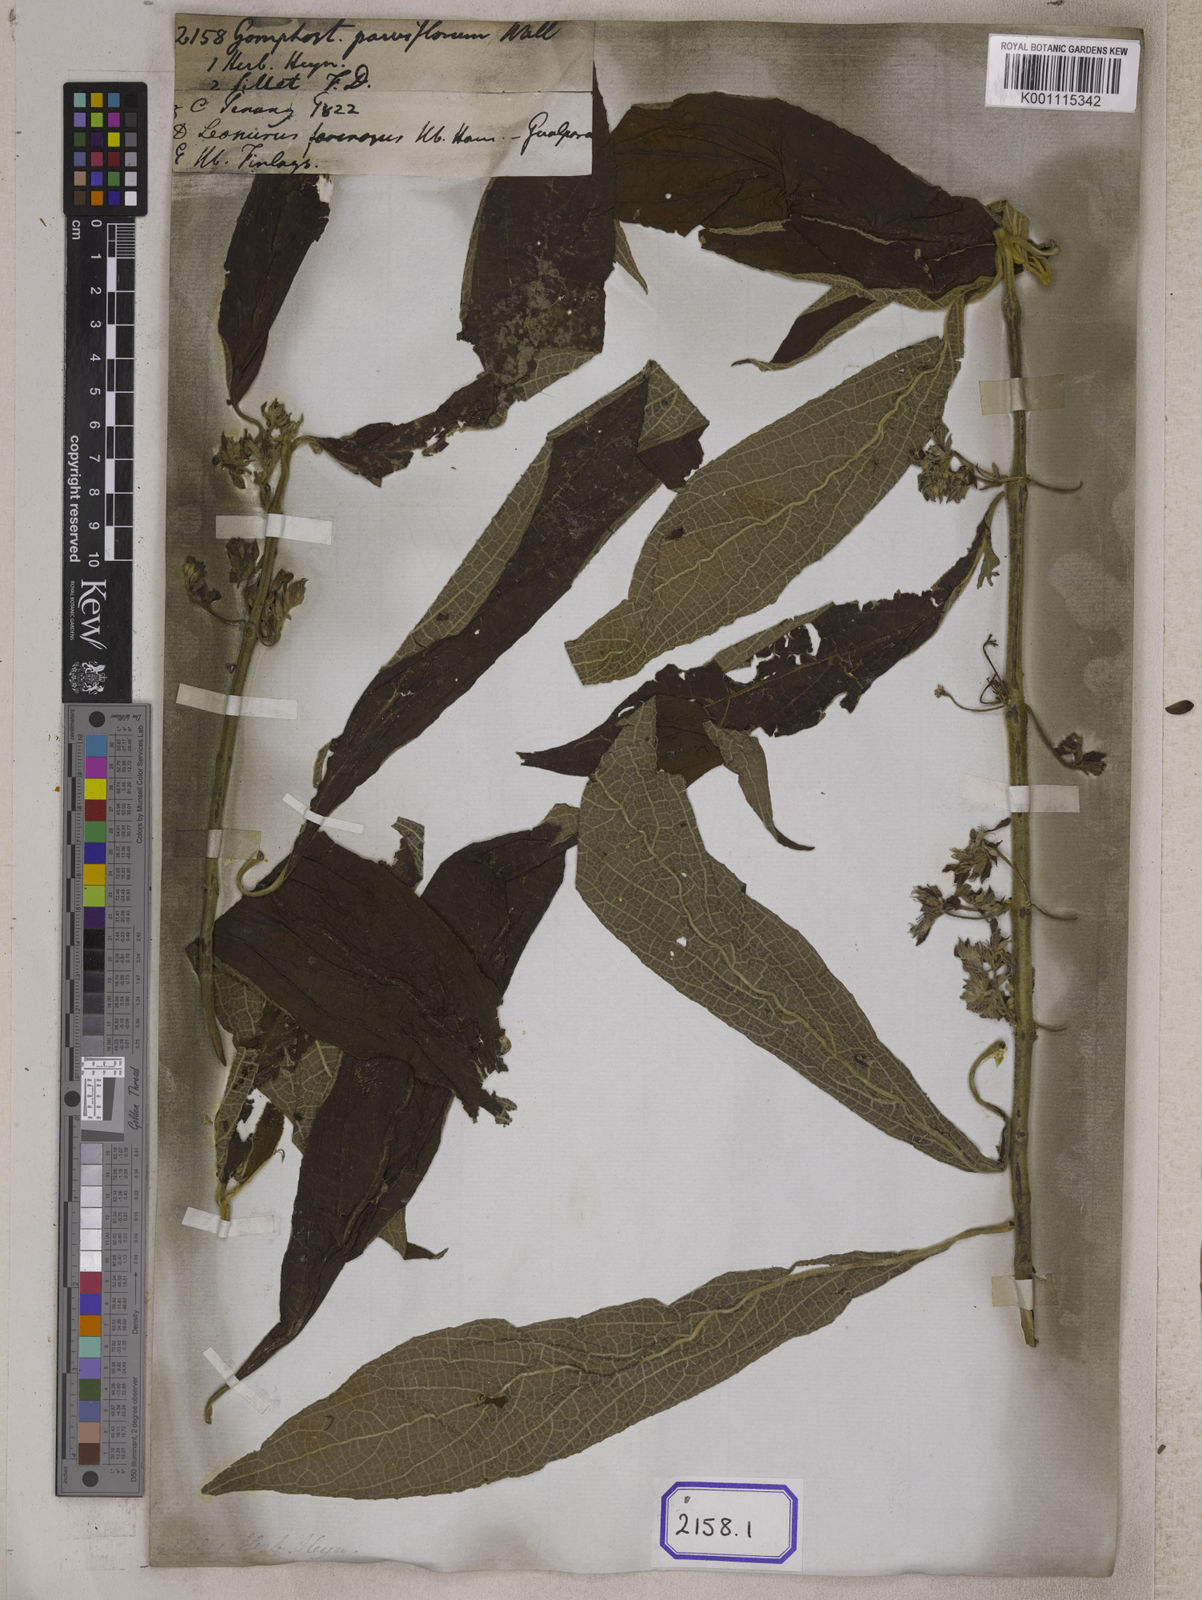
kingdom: Plantae
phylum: Tracheophyta
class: Magnoliopsida
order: Lamiales
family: Lamiaceae
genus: Gomphostemma
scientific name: Gomphostemma
